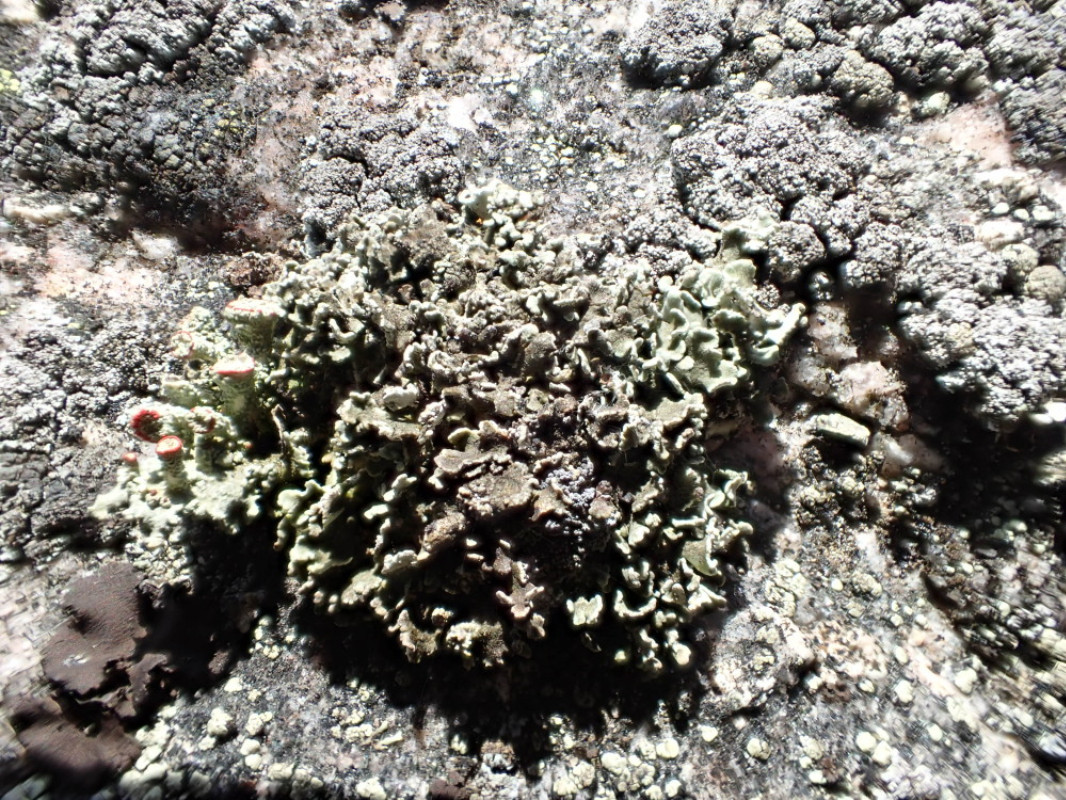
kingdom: Fungi
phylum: Ascomycota
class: Lecanoromycetes
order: Lecanorales
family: Cladoniaceae
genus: Cladonia
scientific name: Cladonia digitata
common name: finger-bægerlav
